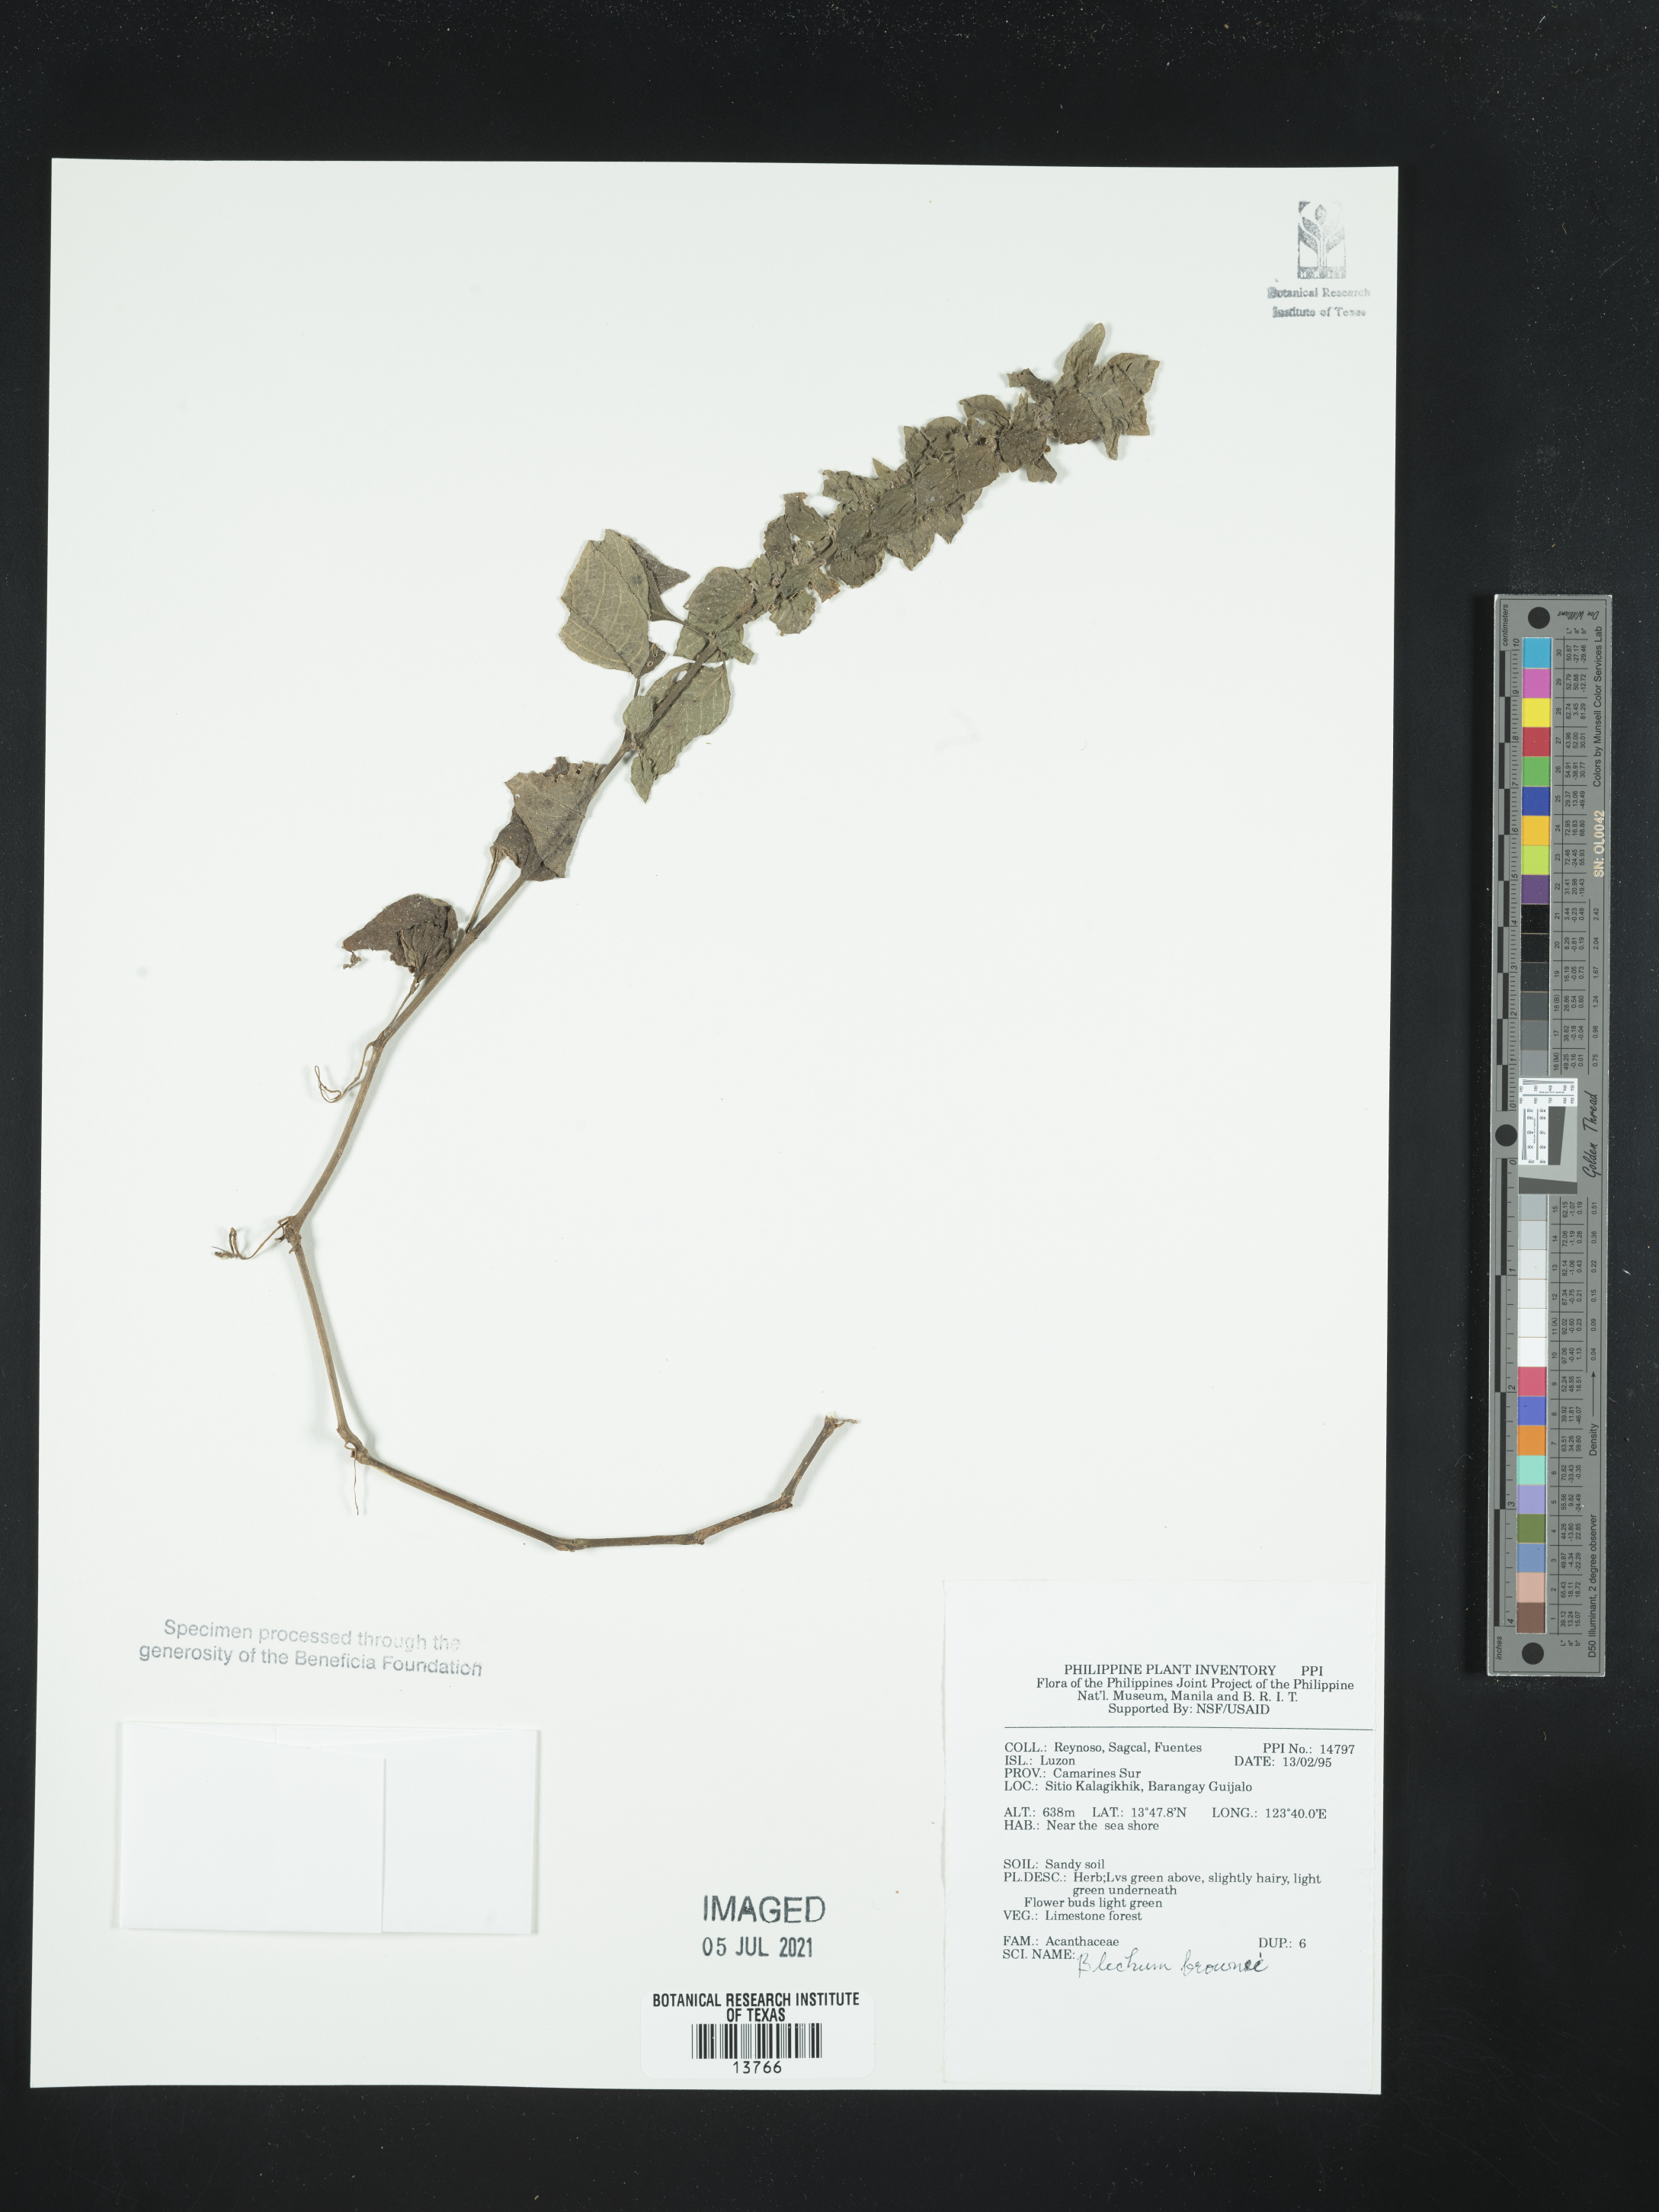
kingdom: Plantae
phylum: Tracheophyta
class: Magnoliopsida
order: Lamiales
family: Acanthaceae
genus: Ruellia
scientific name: Ruellia blechum
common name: Browne's blechum
